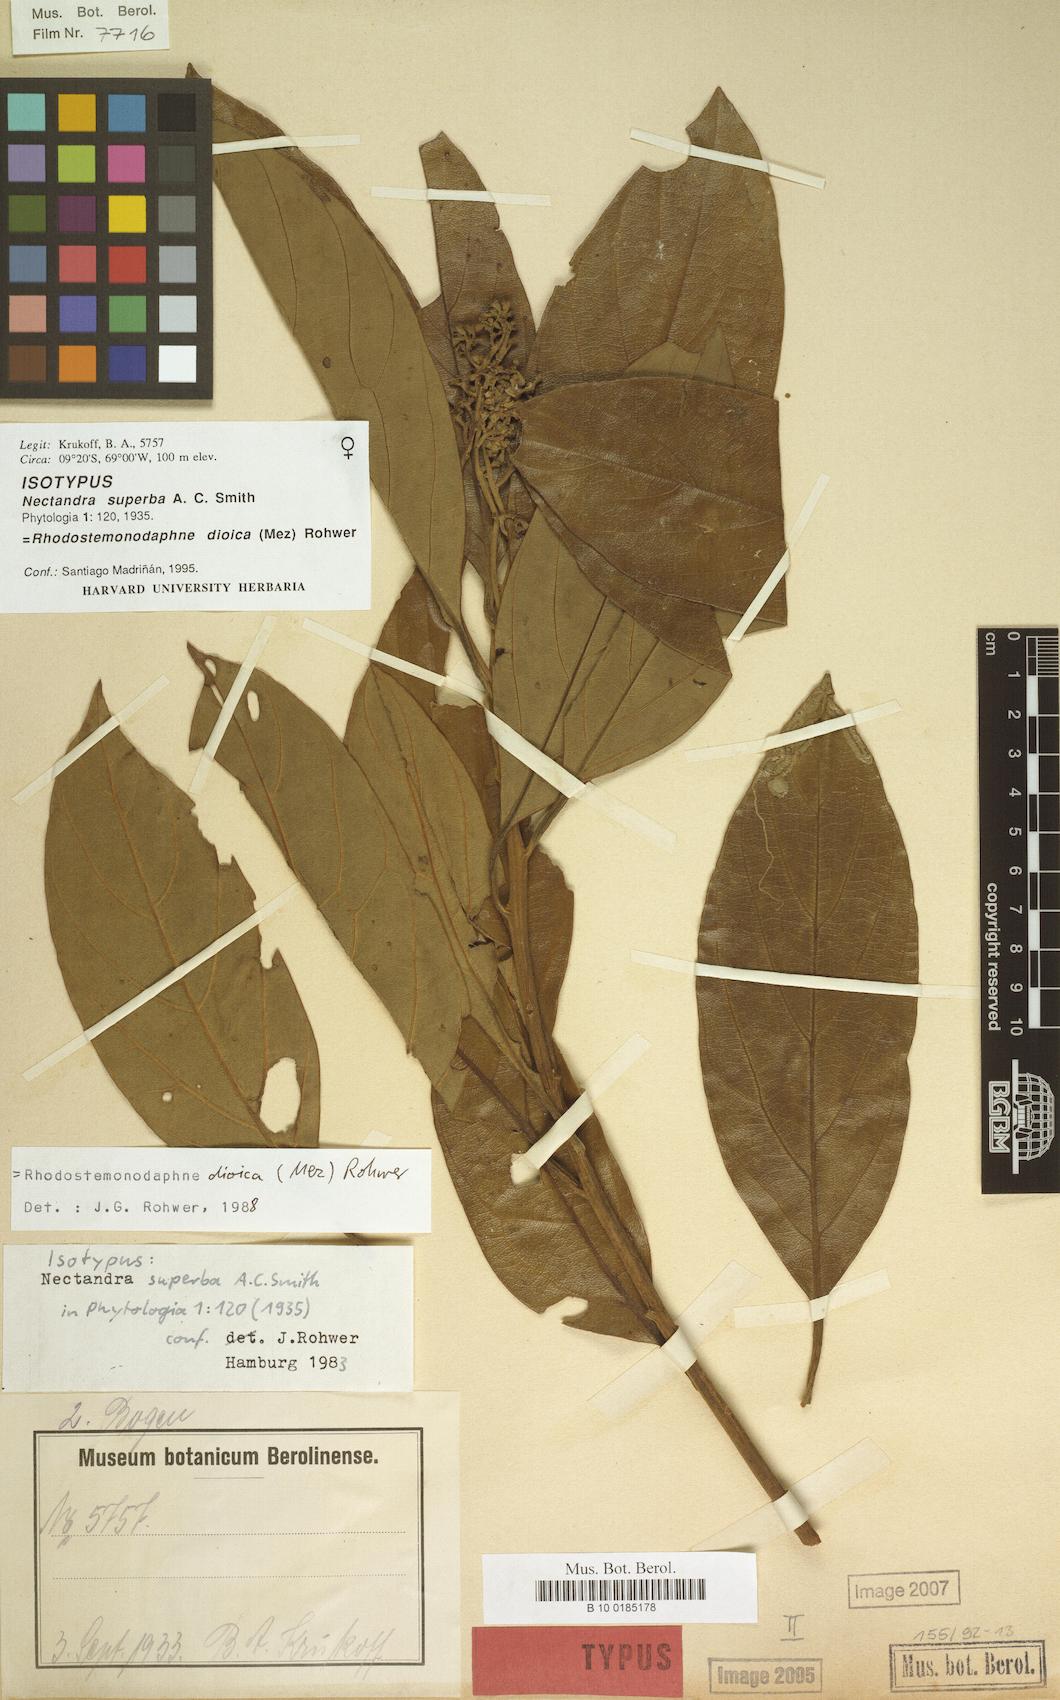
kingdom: Plantae
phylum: Tracheophyta
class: Magnoliopsida
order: Laurales
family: Lauraceae
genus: Rhodostemonodaphne
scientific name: Rhodostemonodaphne dioica
